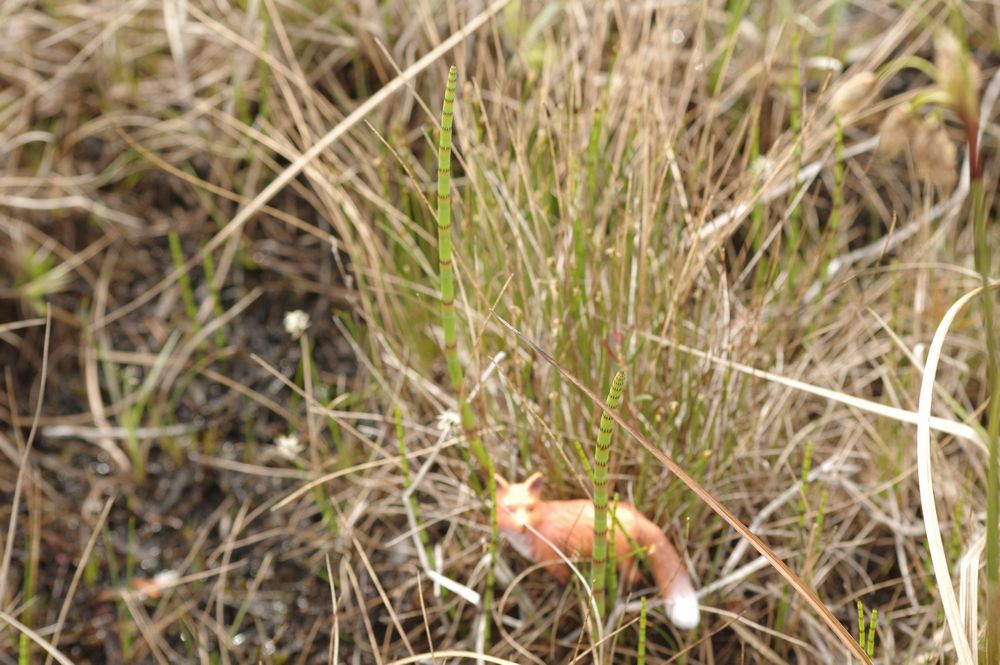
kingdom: Plantae
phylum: Tracheophyta
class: Polypodiopsida
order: Equisetales
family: Equisetaceae
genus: Equisetum
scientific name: Equisetum
